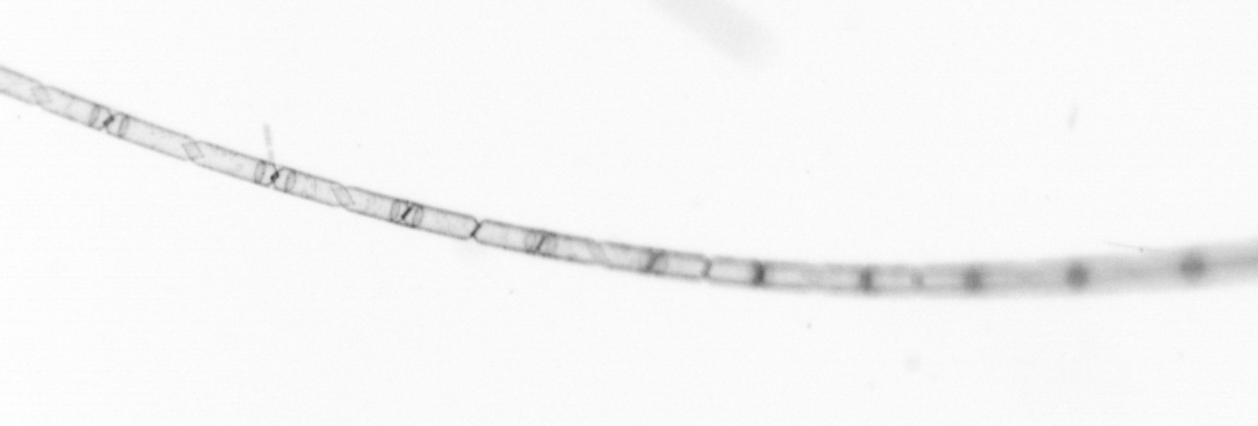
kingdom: Chromista
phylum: Ochrophyta
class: Bacillariophyceae
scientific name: Bacillariophyceae
